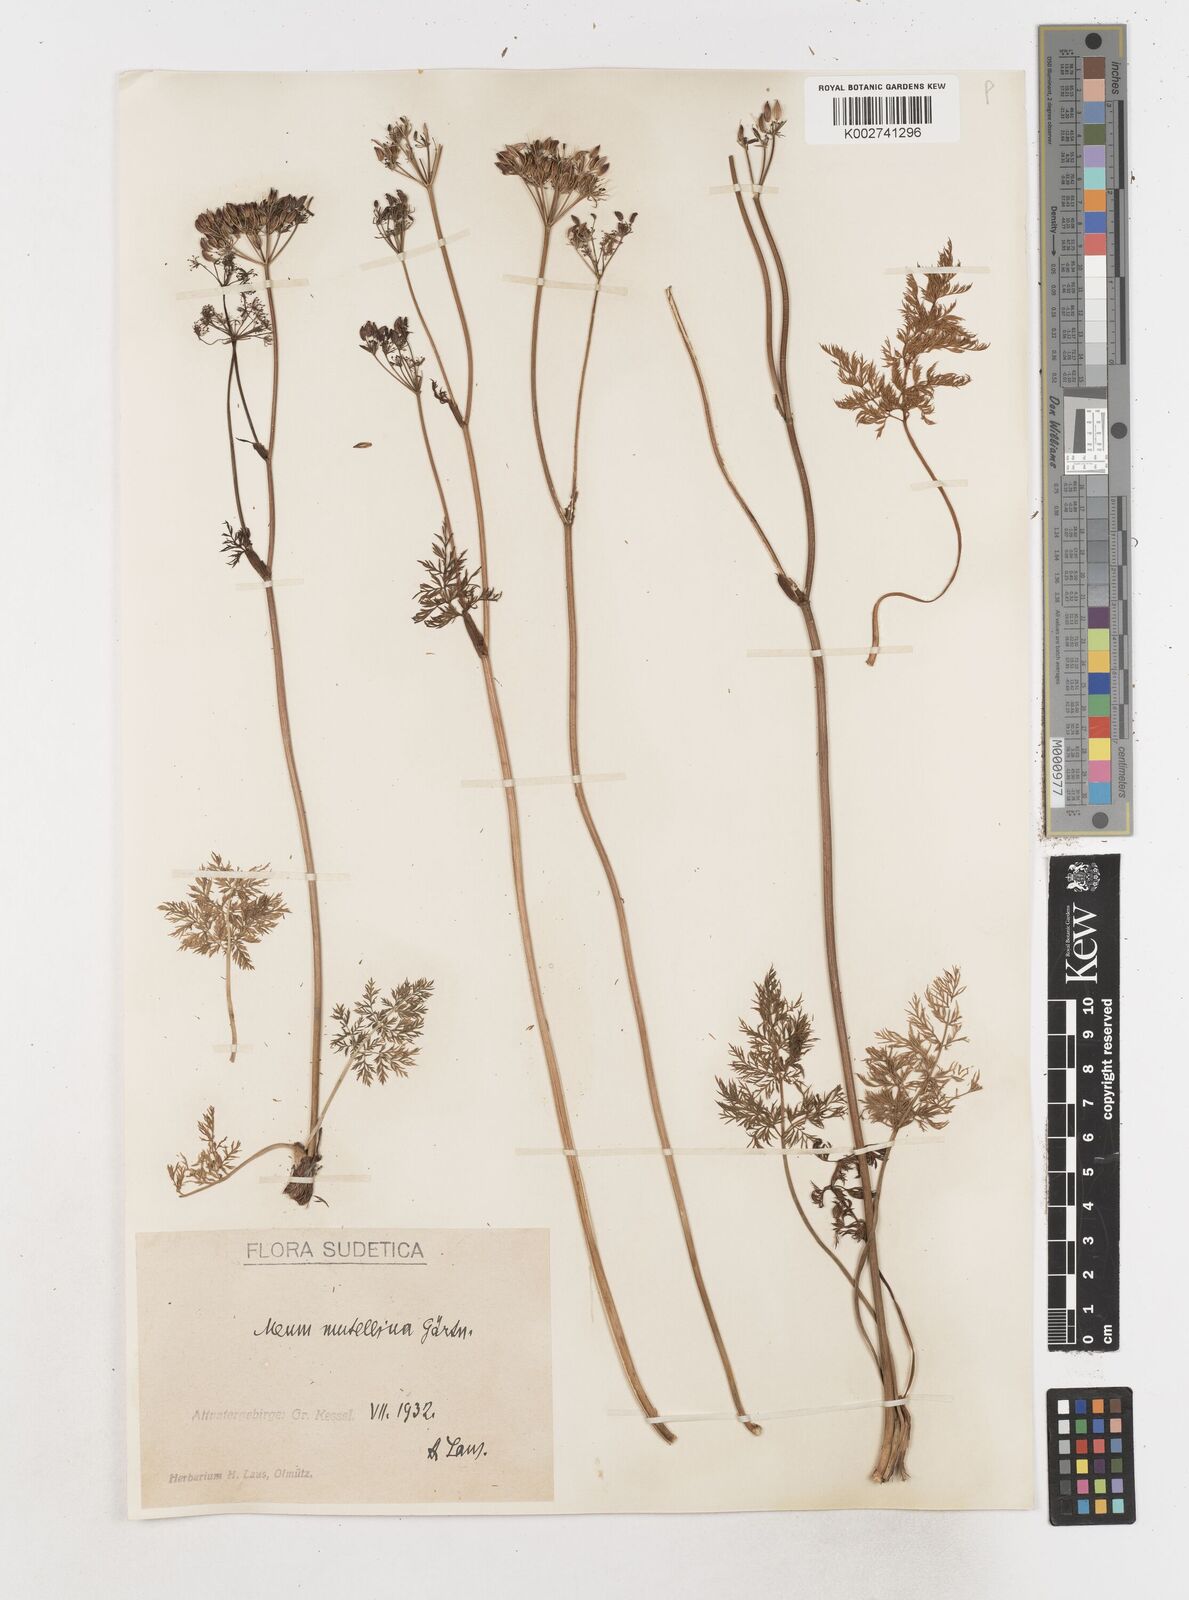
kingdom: Plantae
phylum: Tracheophyta
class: Magnoliopsida
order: Apiales
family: Apiaceae
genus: Mutellina
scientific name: Mutellina adonidifolia
